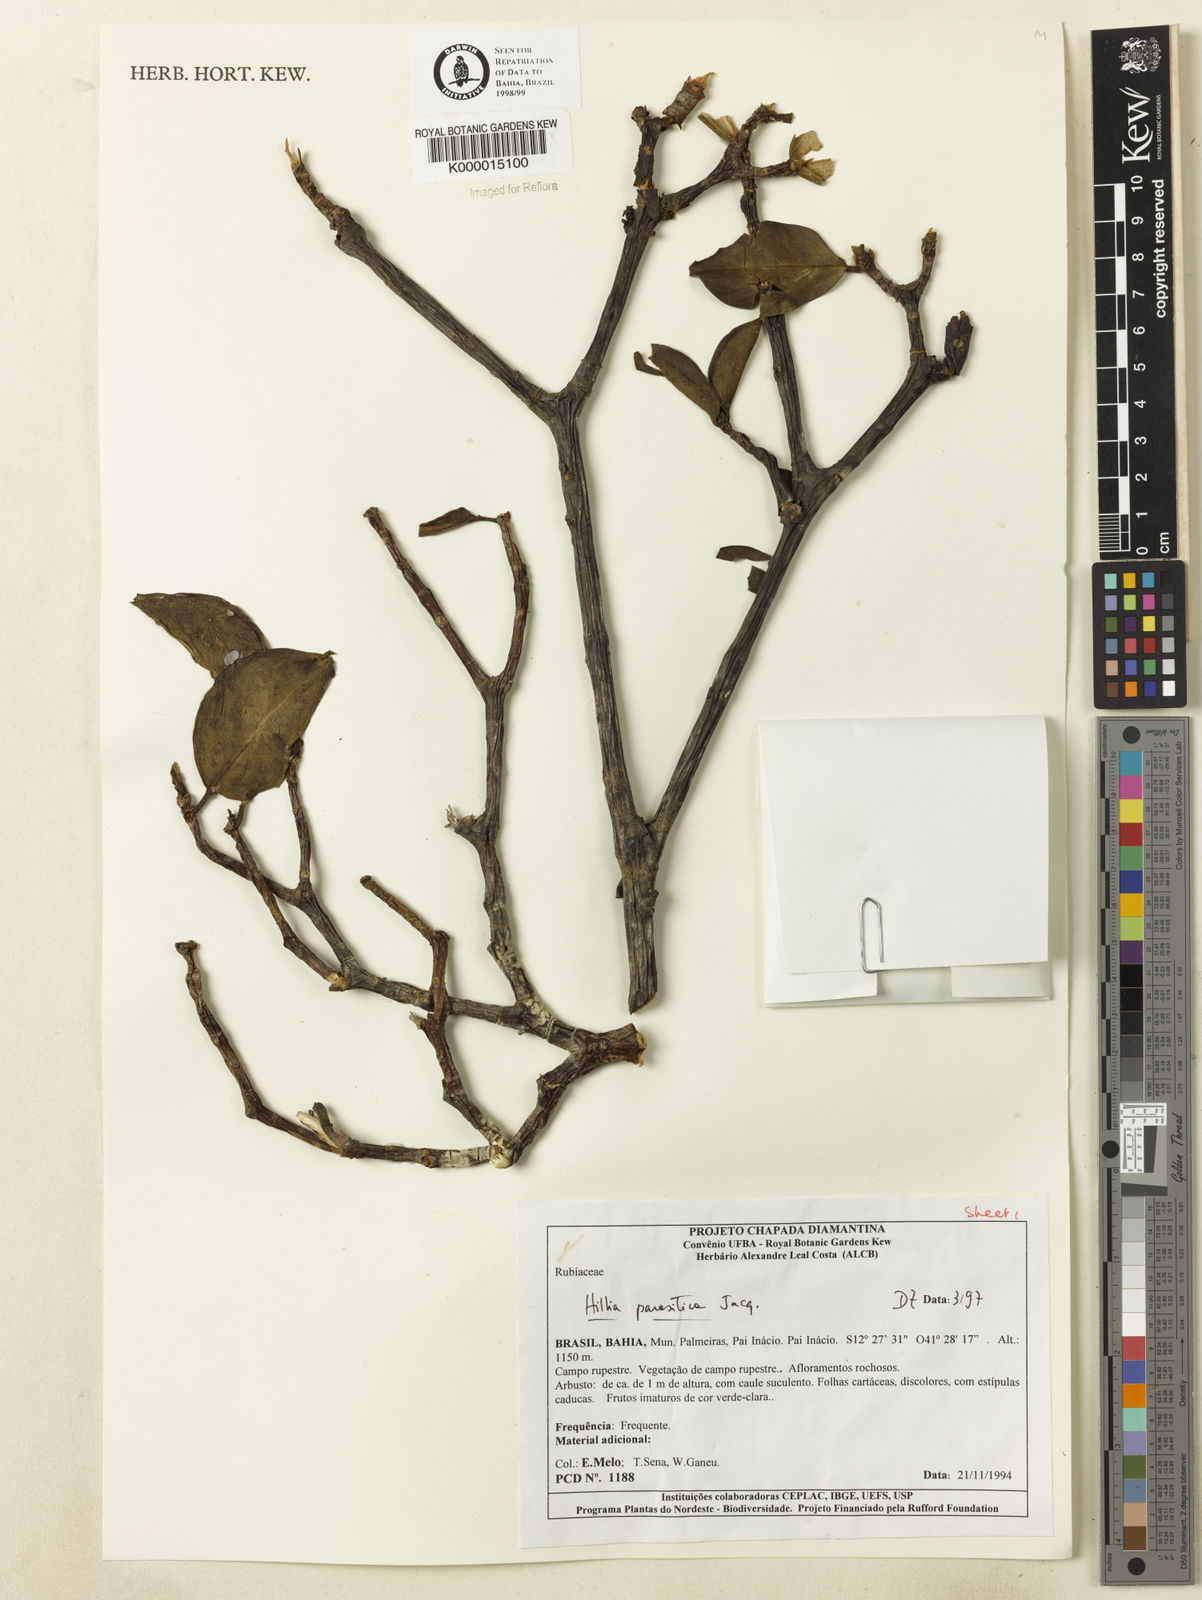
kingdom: Plantae
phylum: Tracheophyta
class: Magnoliopsida
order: Gentianales
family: Rubiaceae
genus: Hillia
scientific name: Hillia parasitica
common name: Morning star
